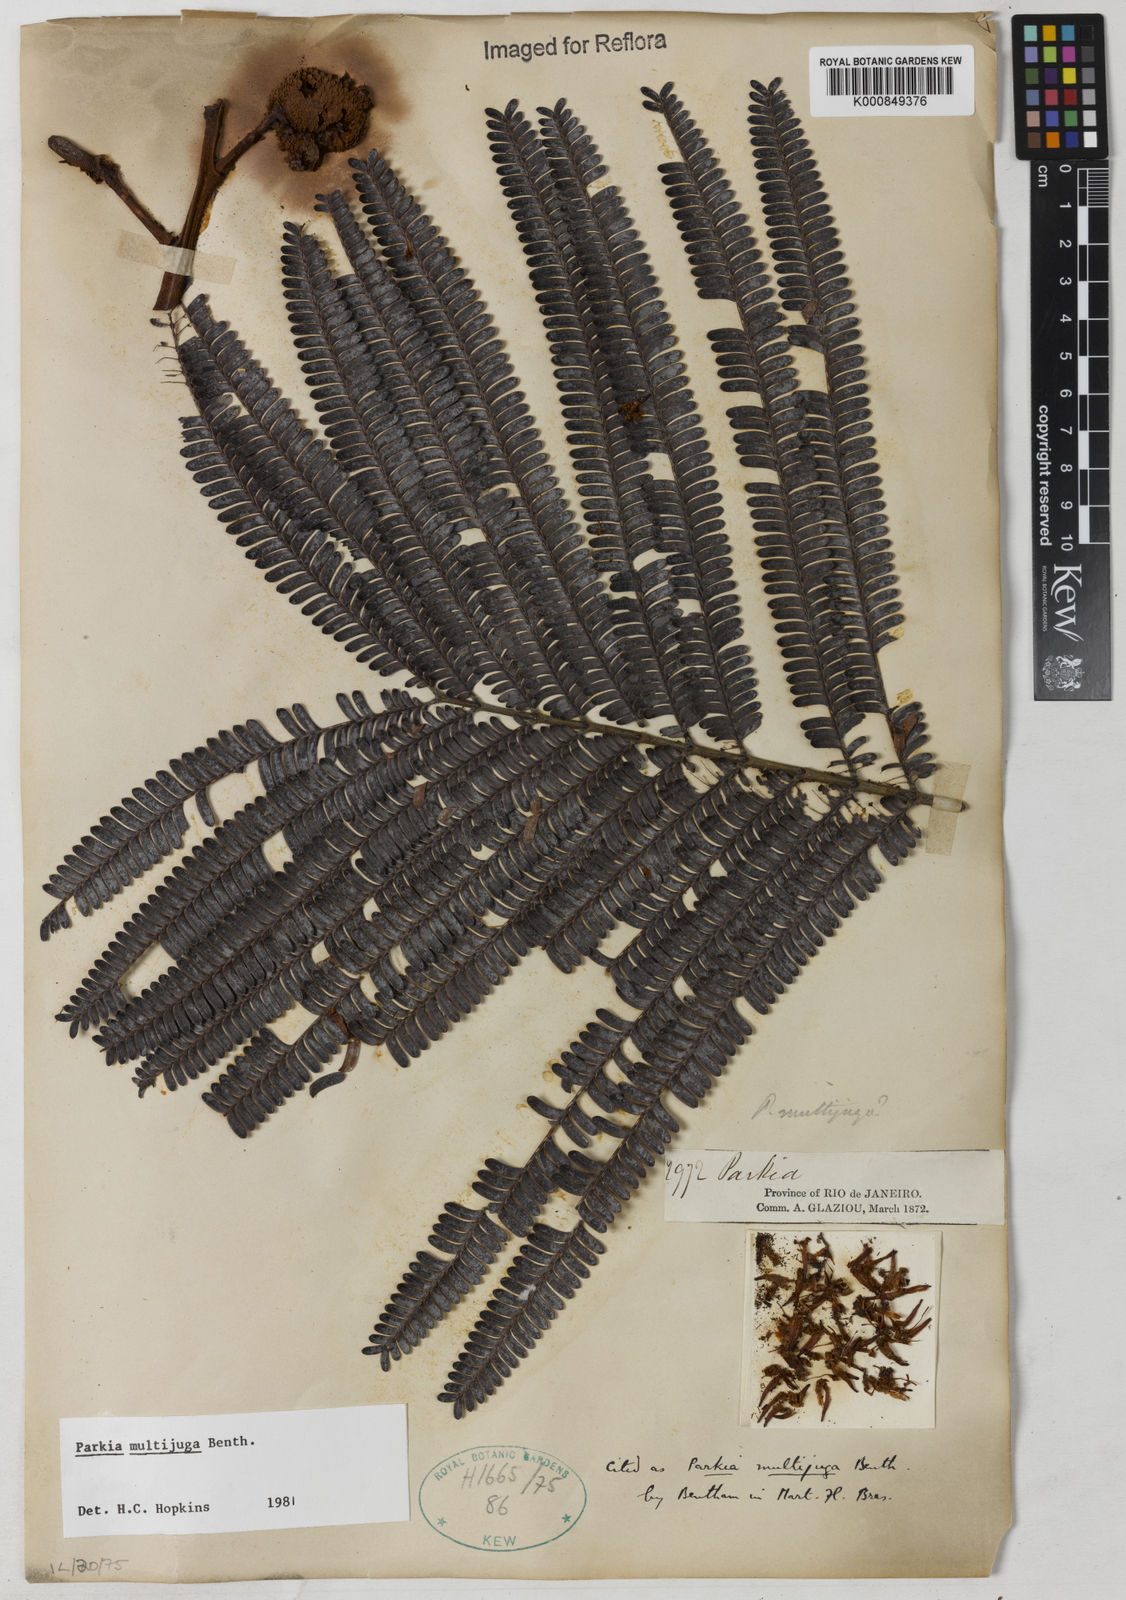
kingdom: Plantae
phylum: Tracheophyta
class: Magnoliopsida
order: Fabales
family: Fabaceae
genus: Parkia
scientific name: Parkia multijuga
